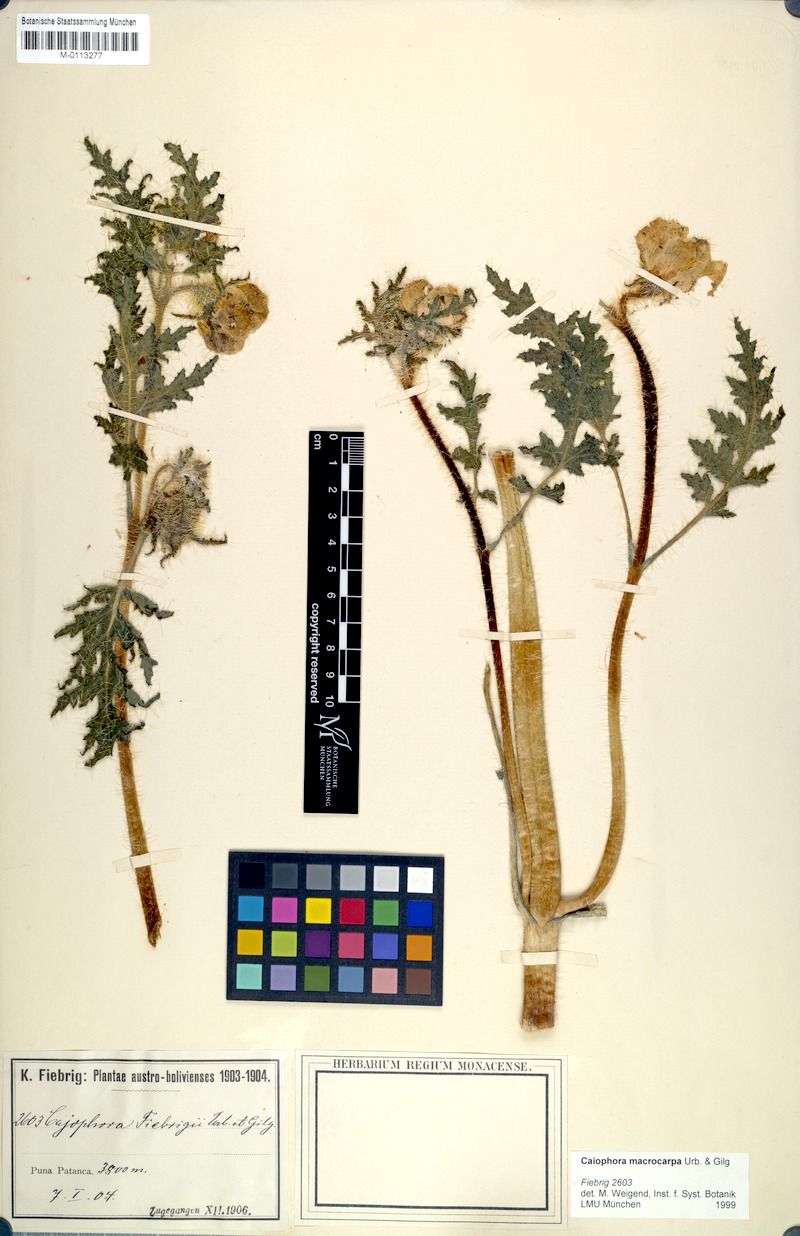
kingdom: Plantae
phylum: Tracheophyta
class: Magnoliopsida
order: Cornales
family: Loasaceae
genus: Caiophora
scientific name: Caiophora chuquitensis
